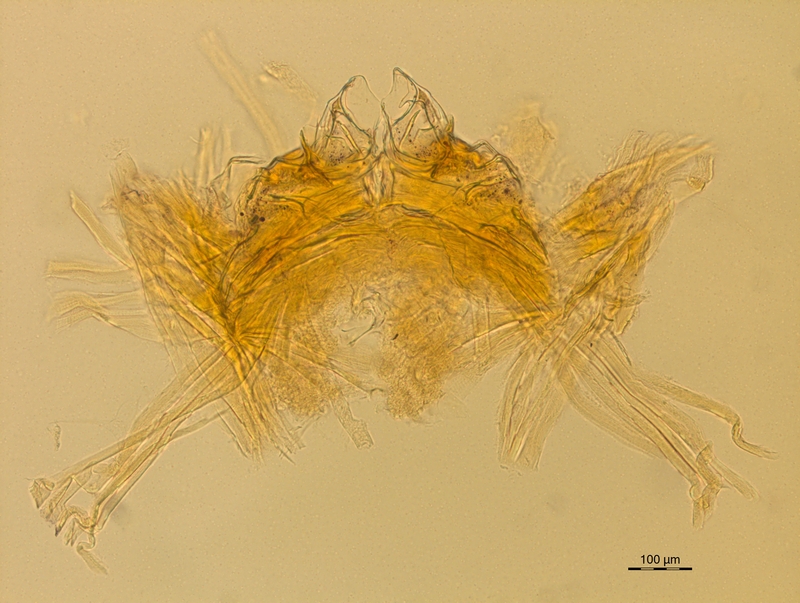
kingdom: Animalia
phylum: Arthropoda
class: Diplopoda
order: Chordeumatida
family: Craspedosomatidae
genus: Carniosoma
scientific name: Carniosoma abietum
